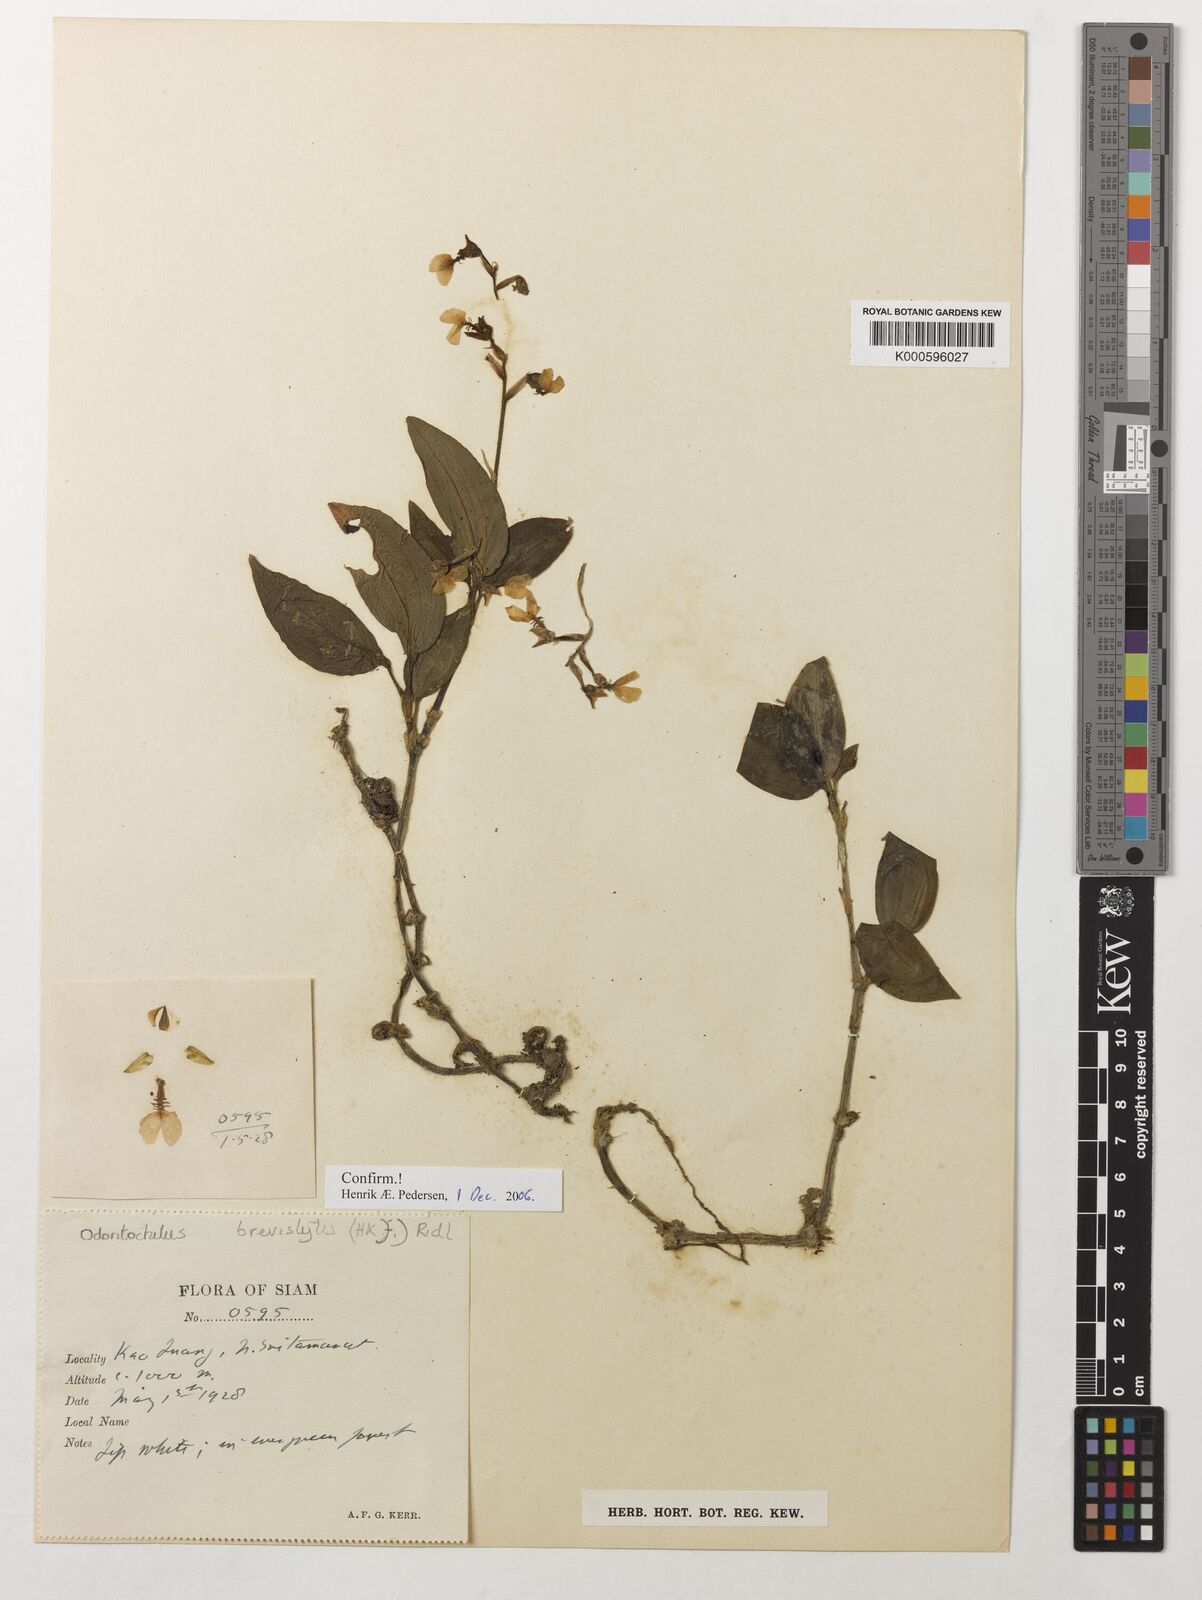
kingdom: Plantae
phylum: Tracheophyta
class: Liliopsida
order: Asparagales
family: Orchidaceae
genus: Odontochilus
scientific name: Odontochilus
